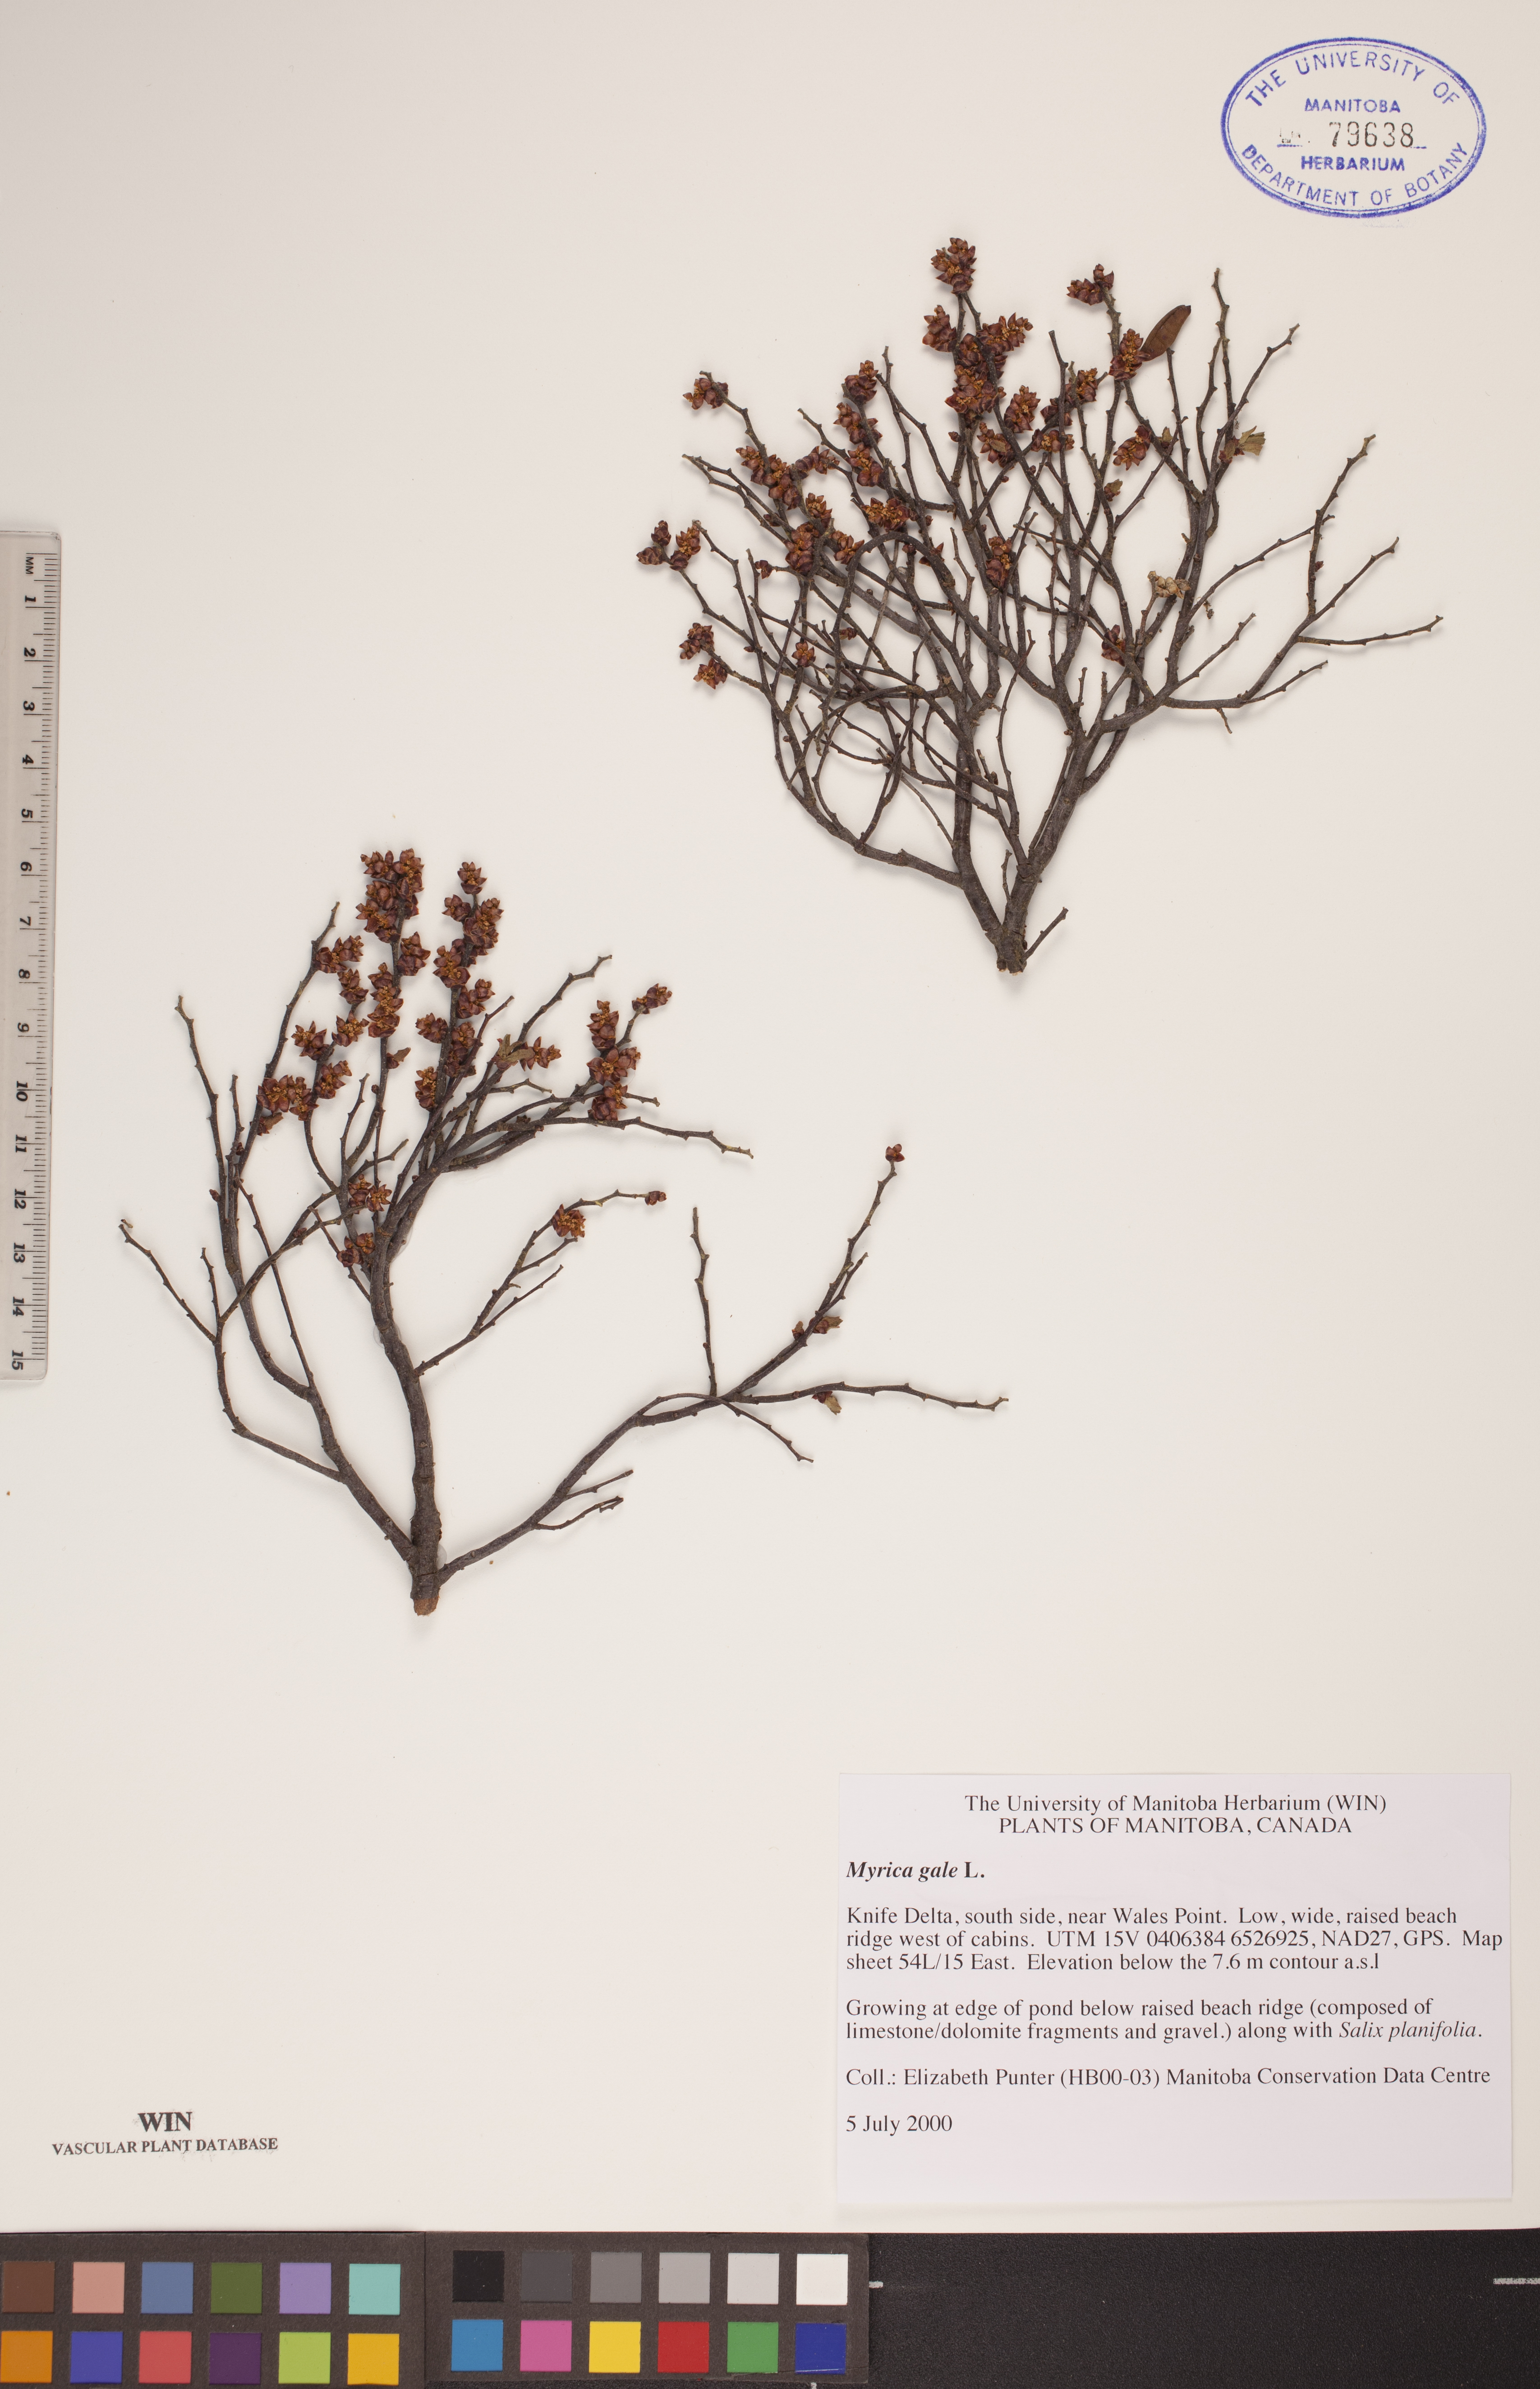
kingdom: Plantae
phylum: Tracheophyta
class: Magnoliopsida
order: Fagales
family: Myricaceae
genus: Myrica
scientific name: Myrica gale
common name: Sweet gale
